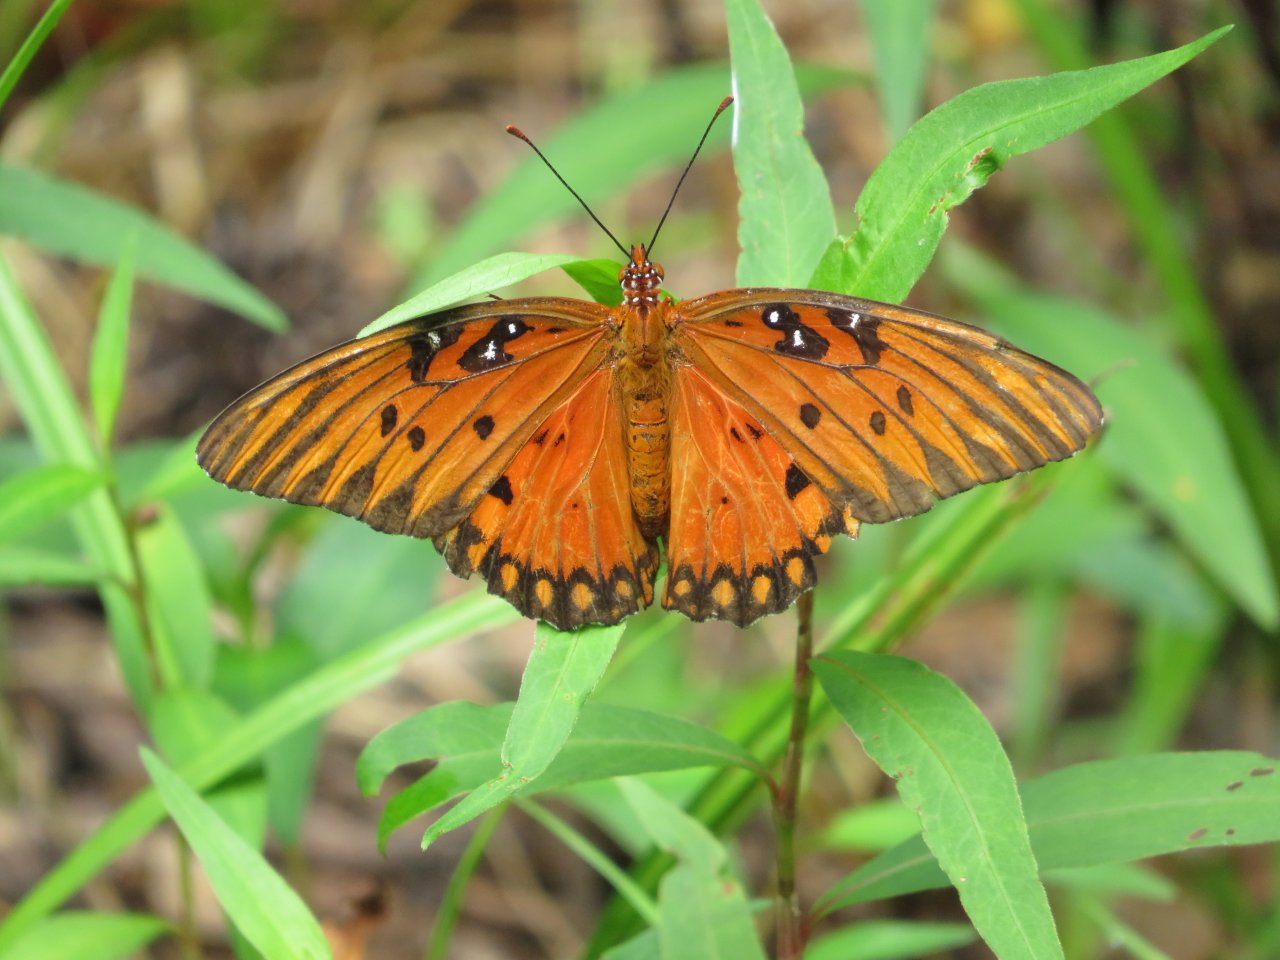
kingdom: Animalia
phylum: Arthropoda
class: Insecta
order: Lepidoptera
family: Nymphalidae
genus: Dione
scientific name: Dione vanillae
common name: Gulf Fritillary
